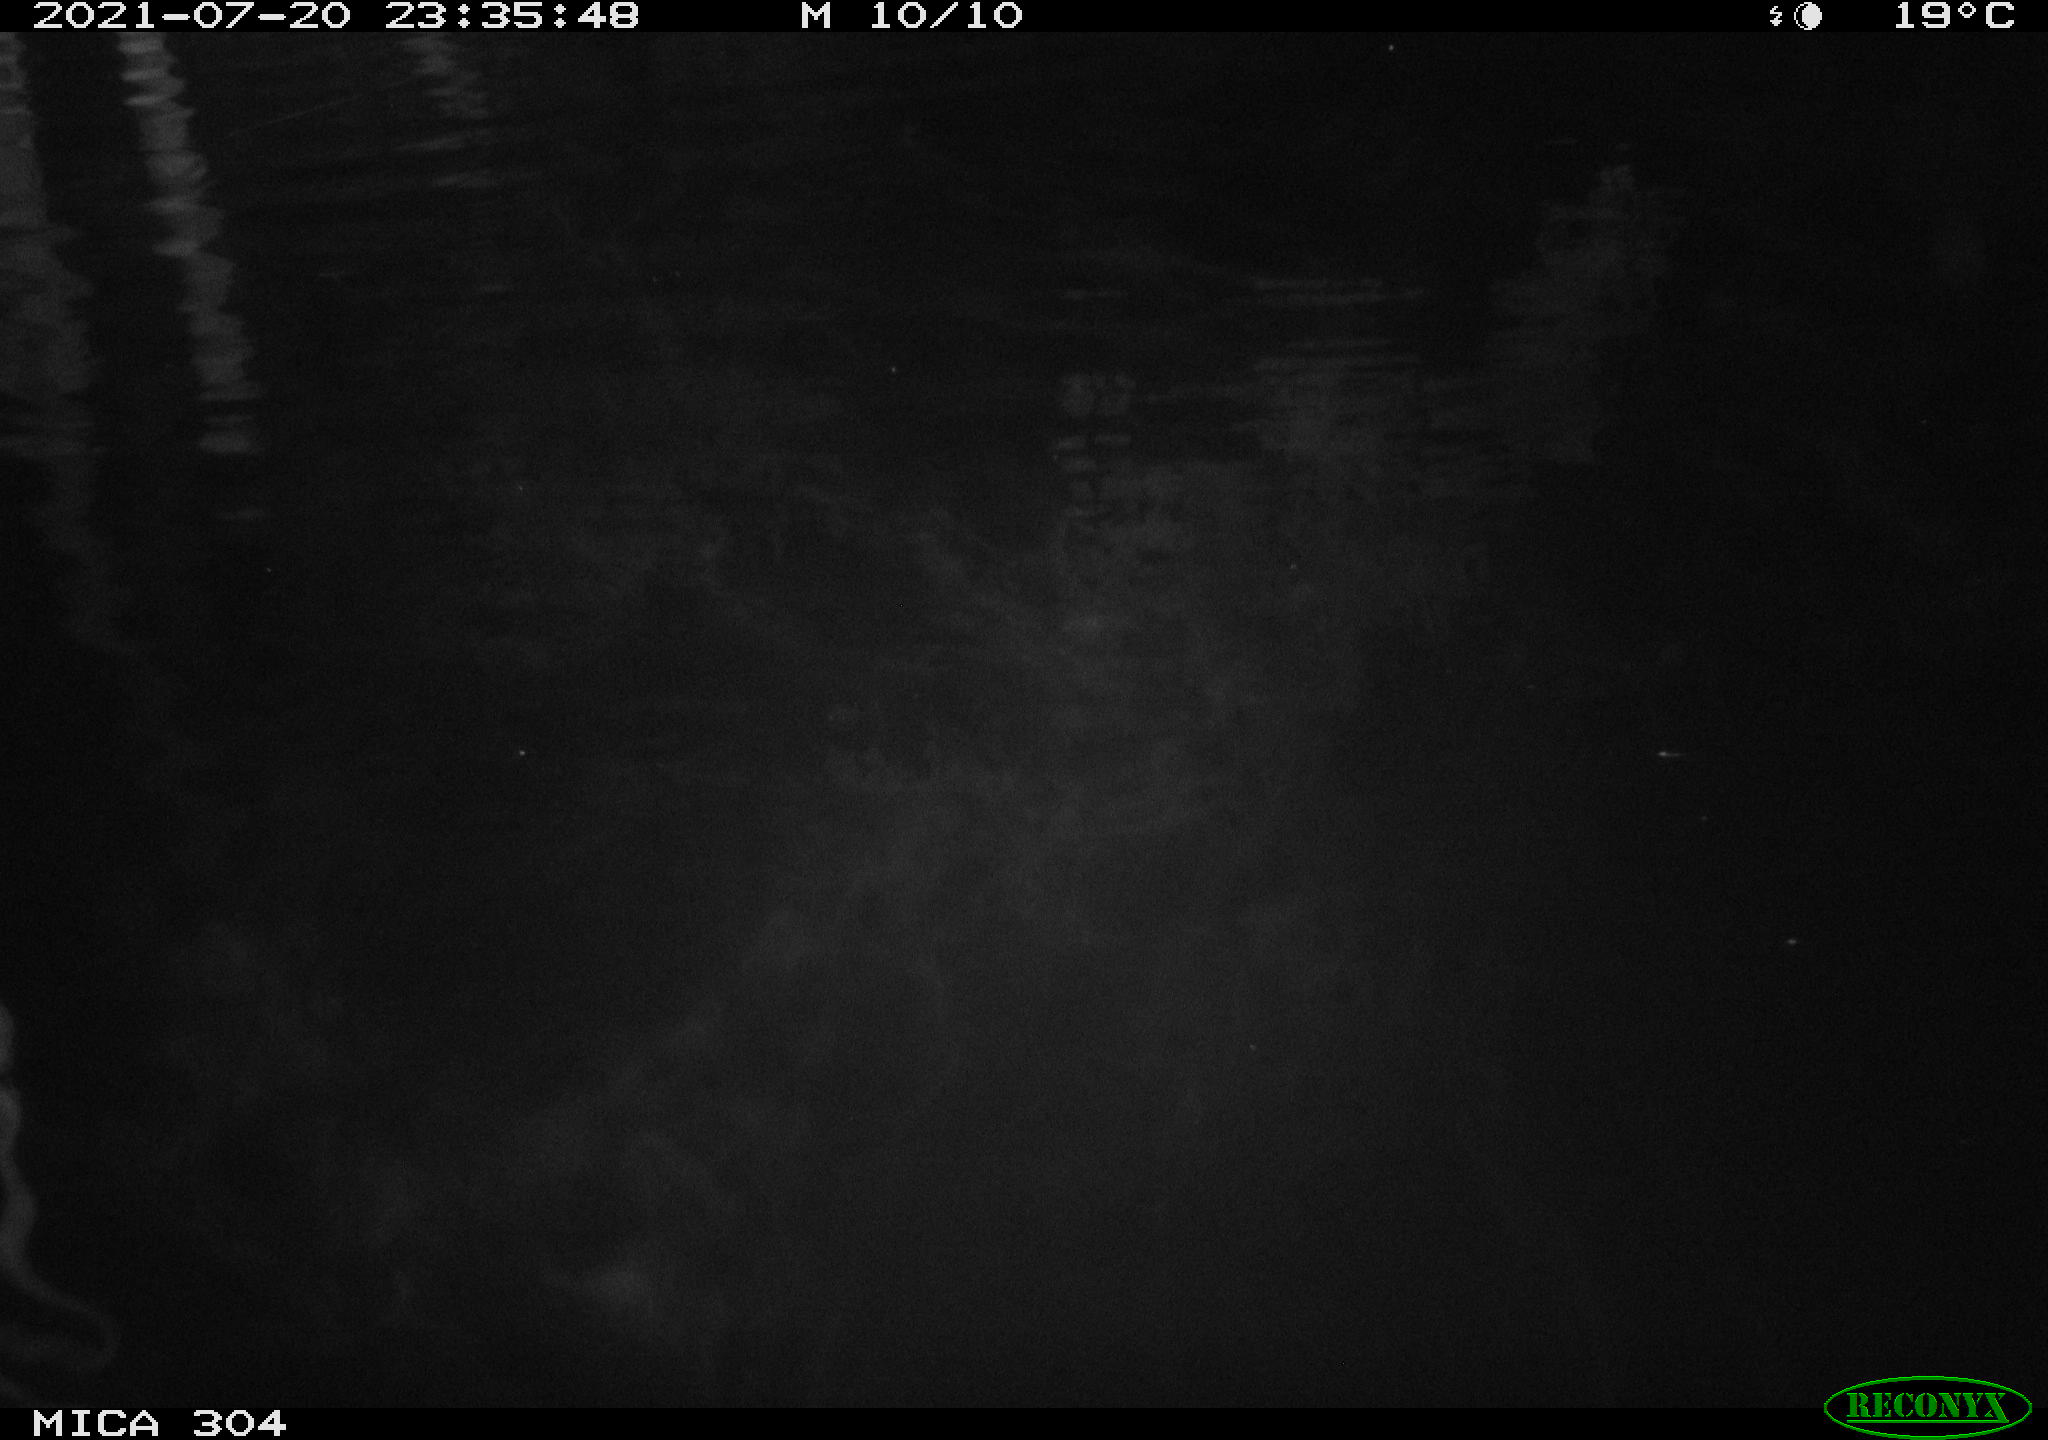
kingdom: Animalia
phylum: Chordata
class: Aves
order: Anseriformes
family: Anatidae
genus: Anas
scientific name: Anas platyrhynchos
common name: Mallard
